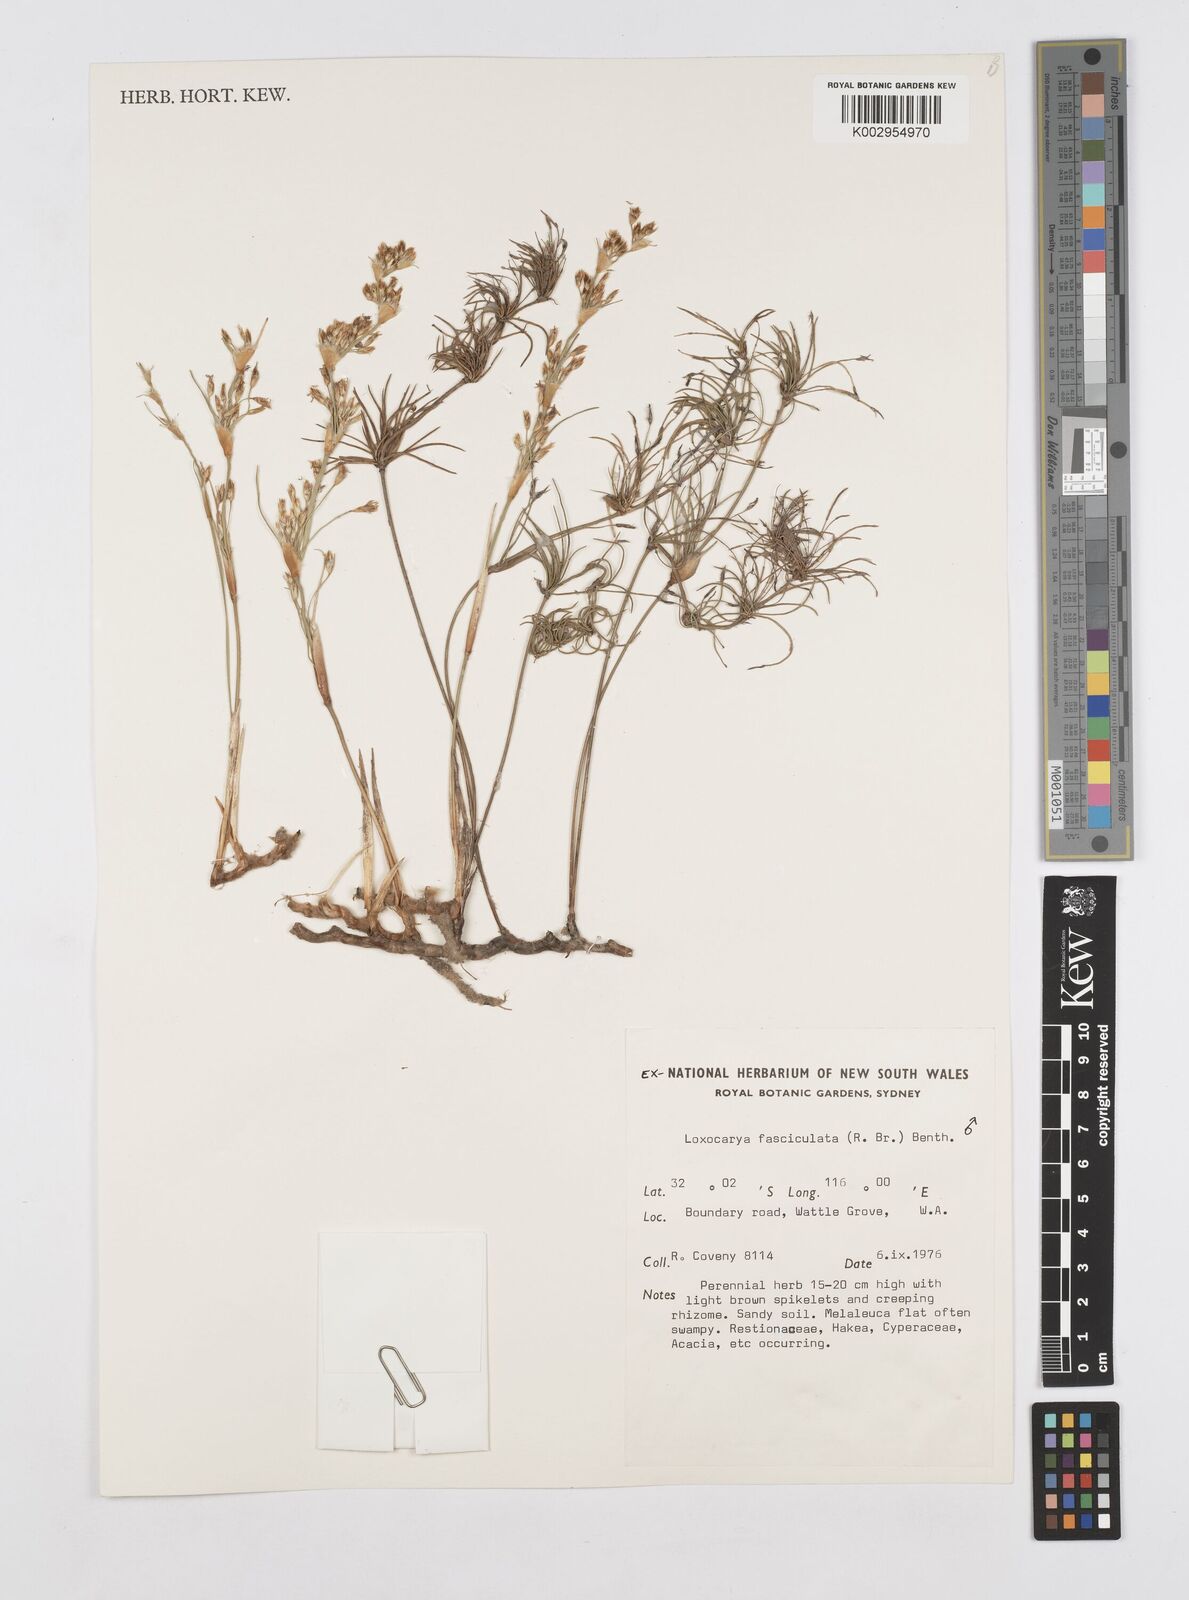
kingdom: Plantae
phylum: Tracheophyta
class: Liliopsida
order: Poales
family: Restionaceae
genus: Desmocladus
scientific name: Desmocladus fasciculatus
